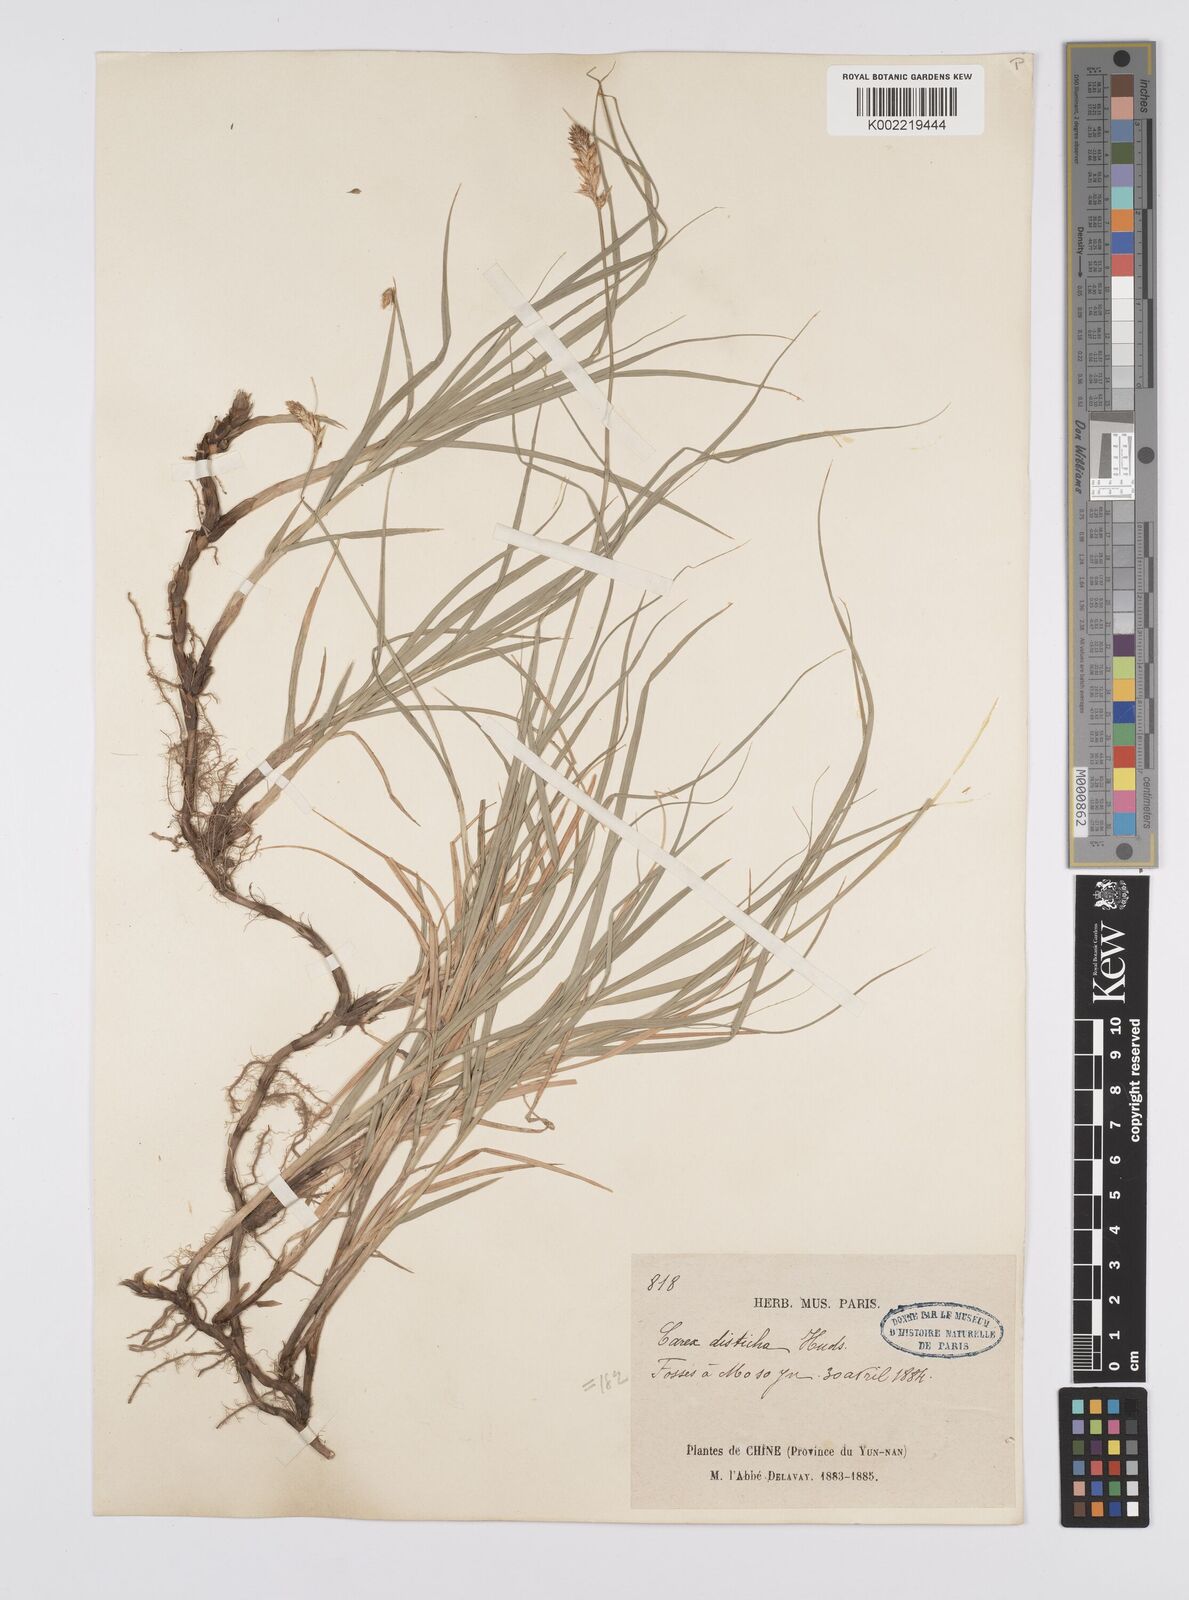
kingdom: Plantae
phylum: Tracheophyta
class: Liliopsida
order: Poales
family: Cyperaceae
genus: Carex
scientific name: Carex disticha
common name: Brown sedge
